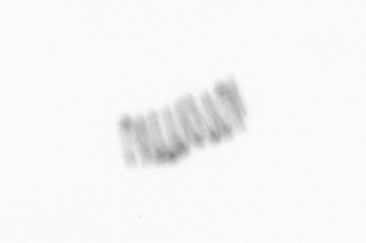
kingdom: Chromista
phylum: Ochrophyta
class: Bacillariophyceae
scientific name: Bacillariophyceae
